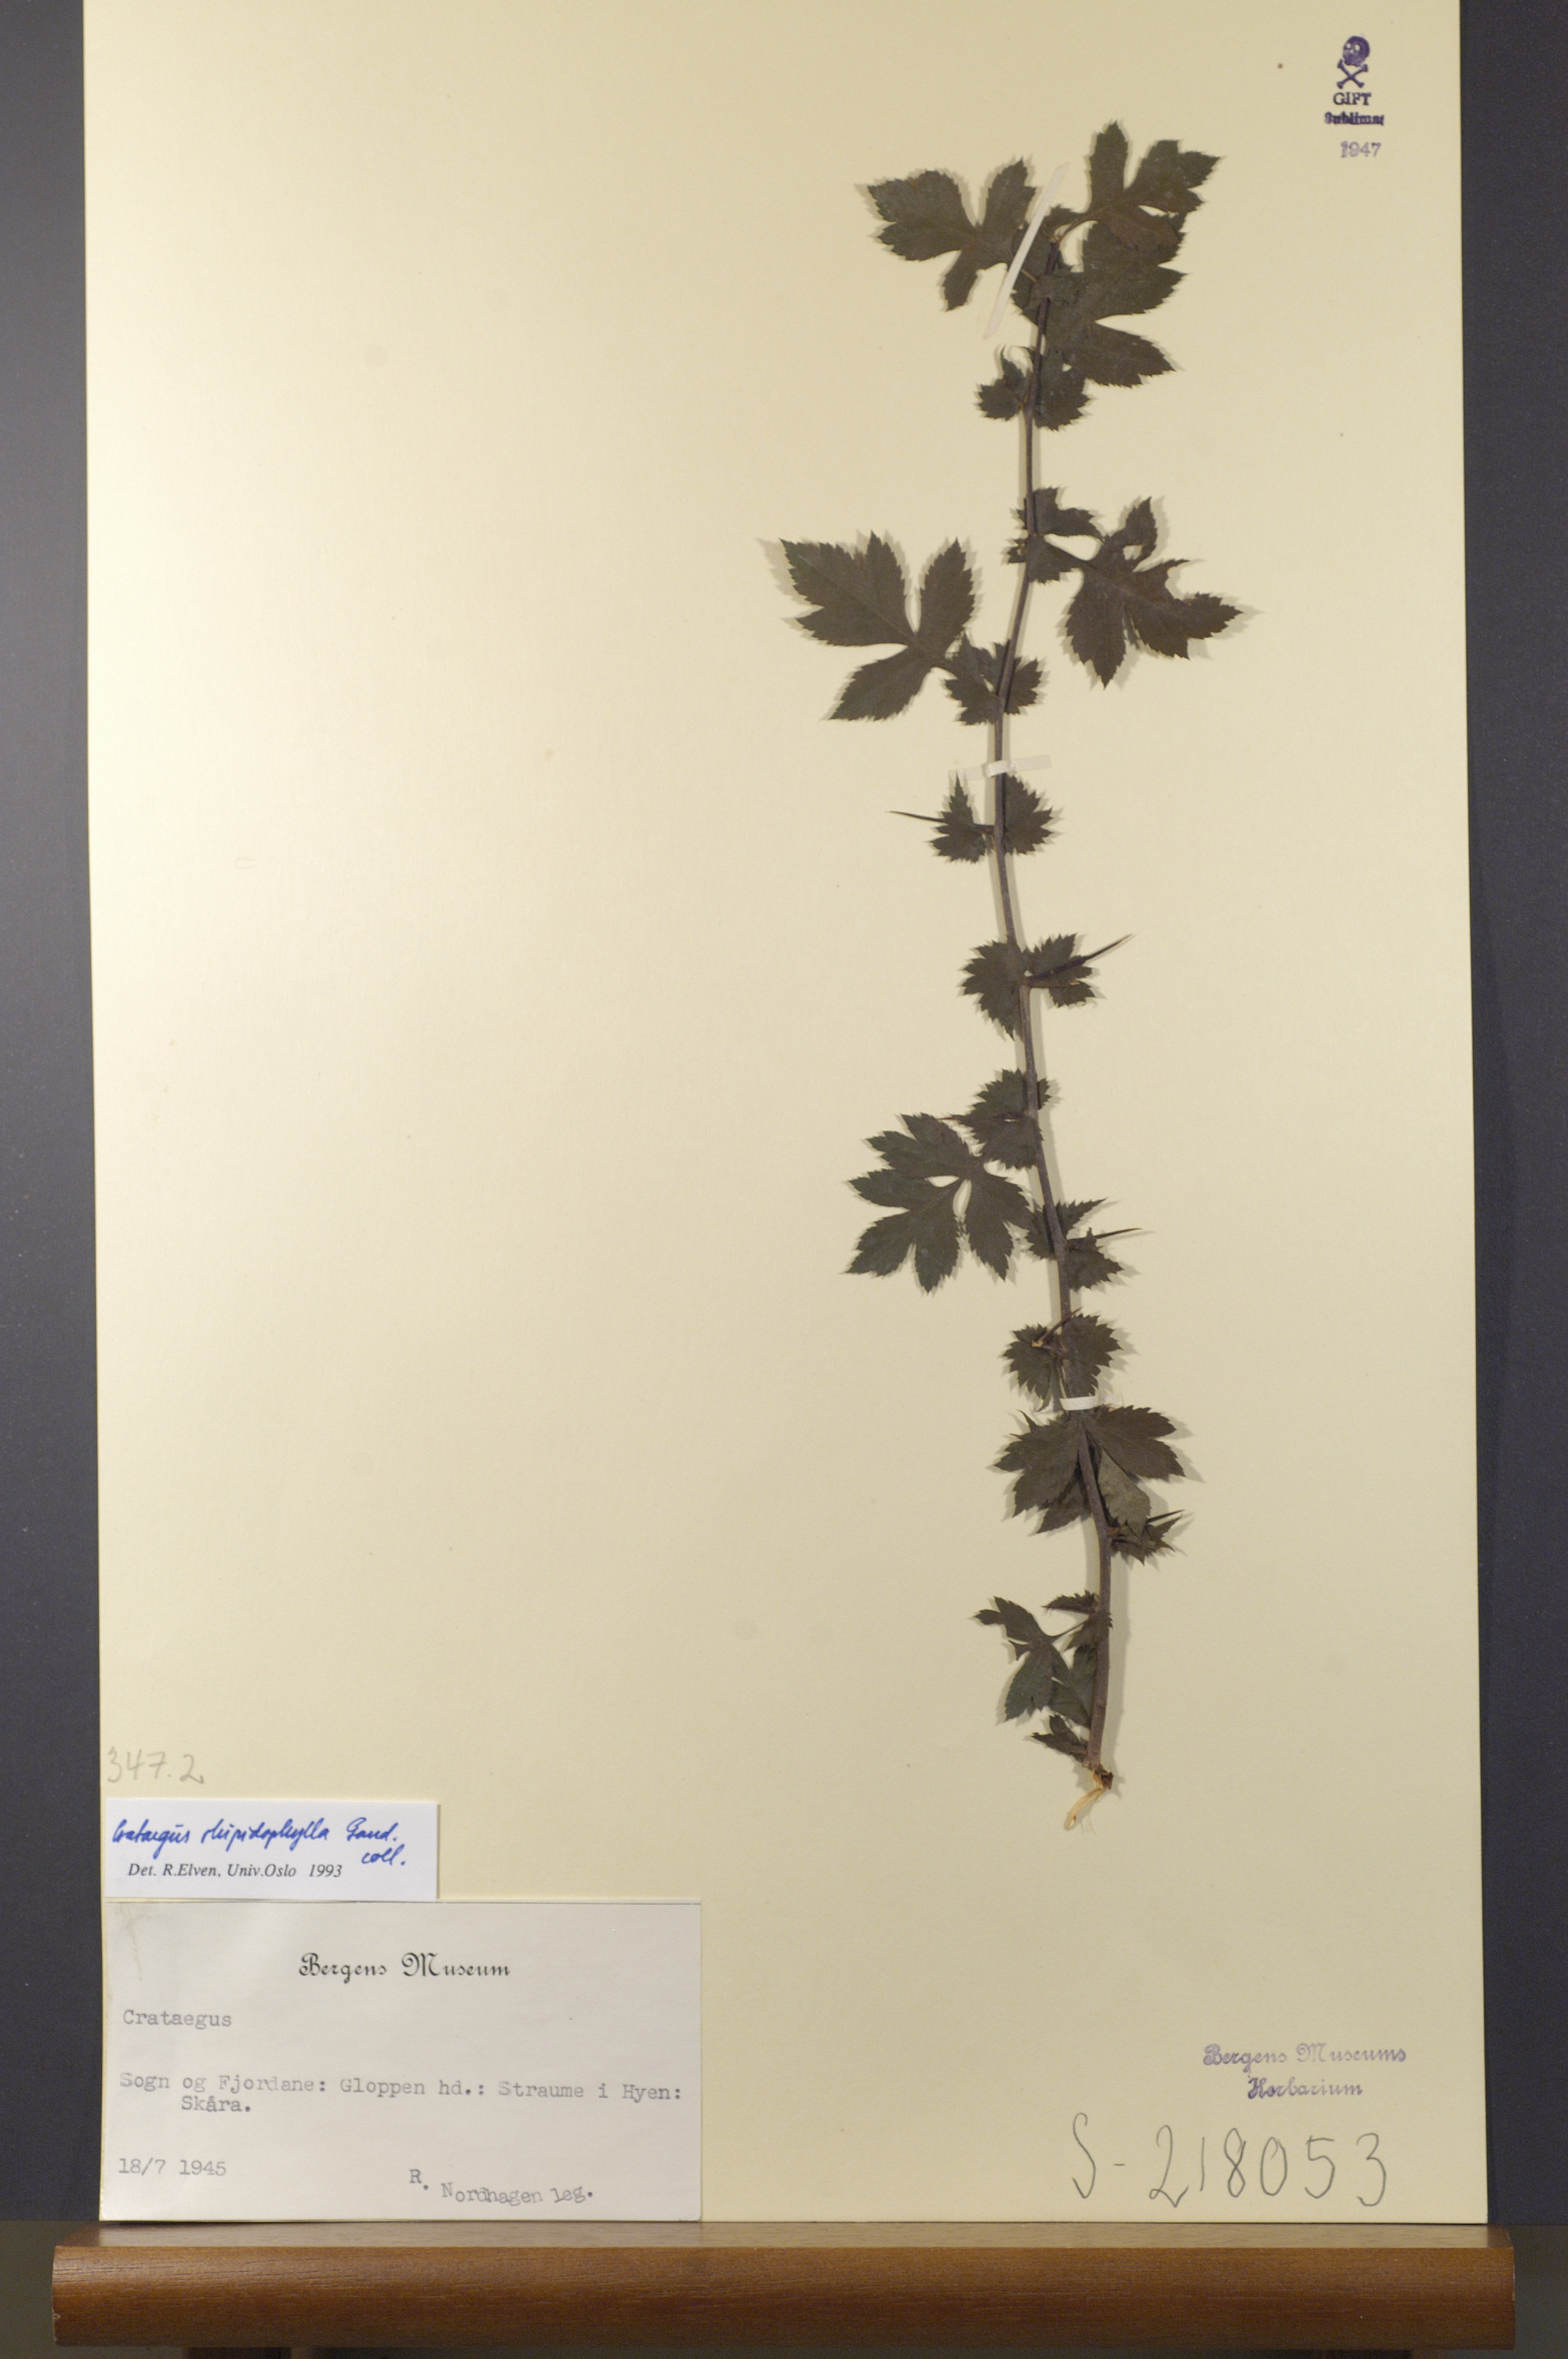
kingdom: Plantae
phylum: Tracheophyta
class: Magnoliopsida
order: Rosales
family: Rosaceae
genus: Crataegus
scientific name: Crataegus rhipidophylla
